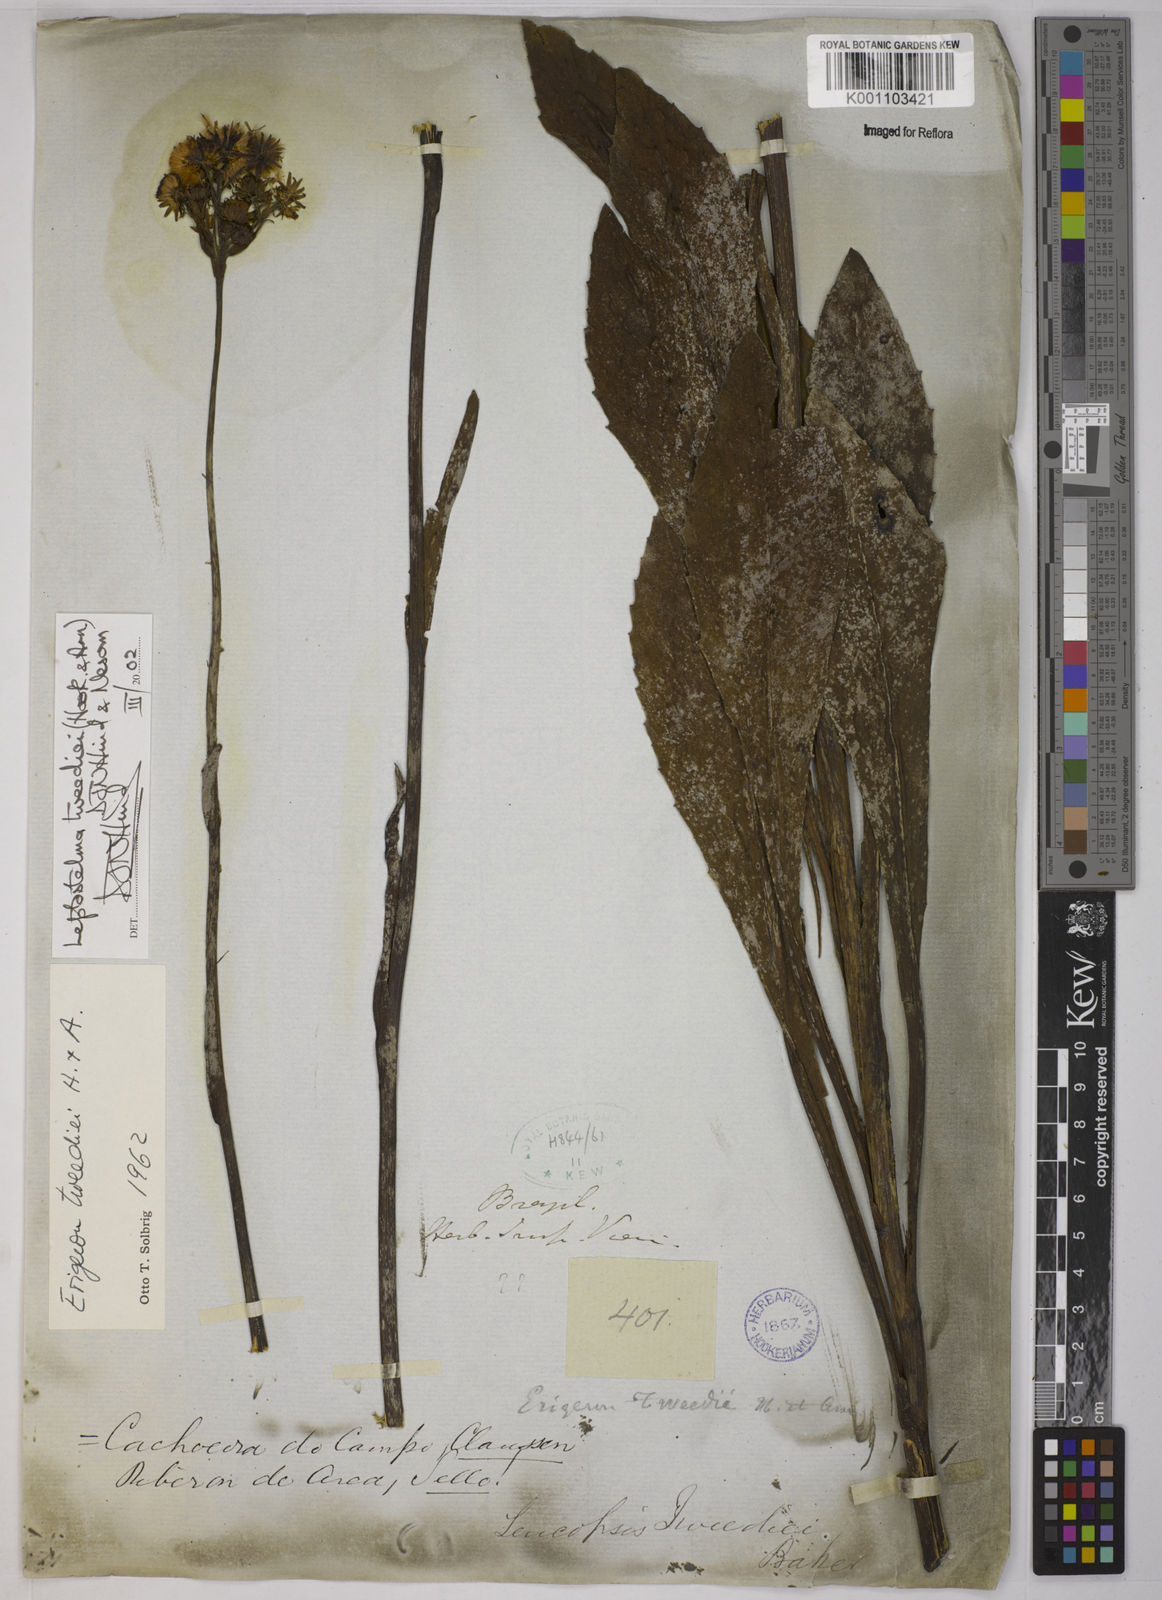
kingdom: Plantae
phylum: Tracheophyta
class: Magnoliopsida
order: Asterales
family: Asteraceae
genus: Leptostelma
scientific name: Leptostelma tweediei
